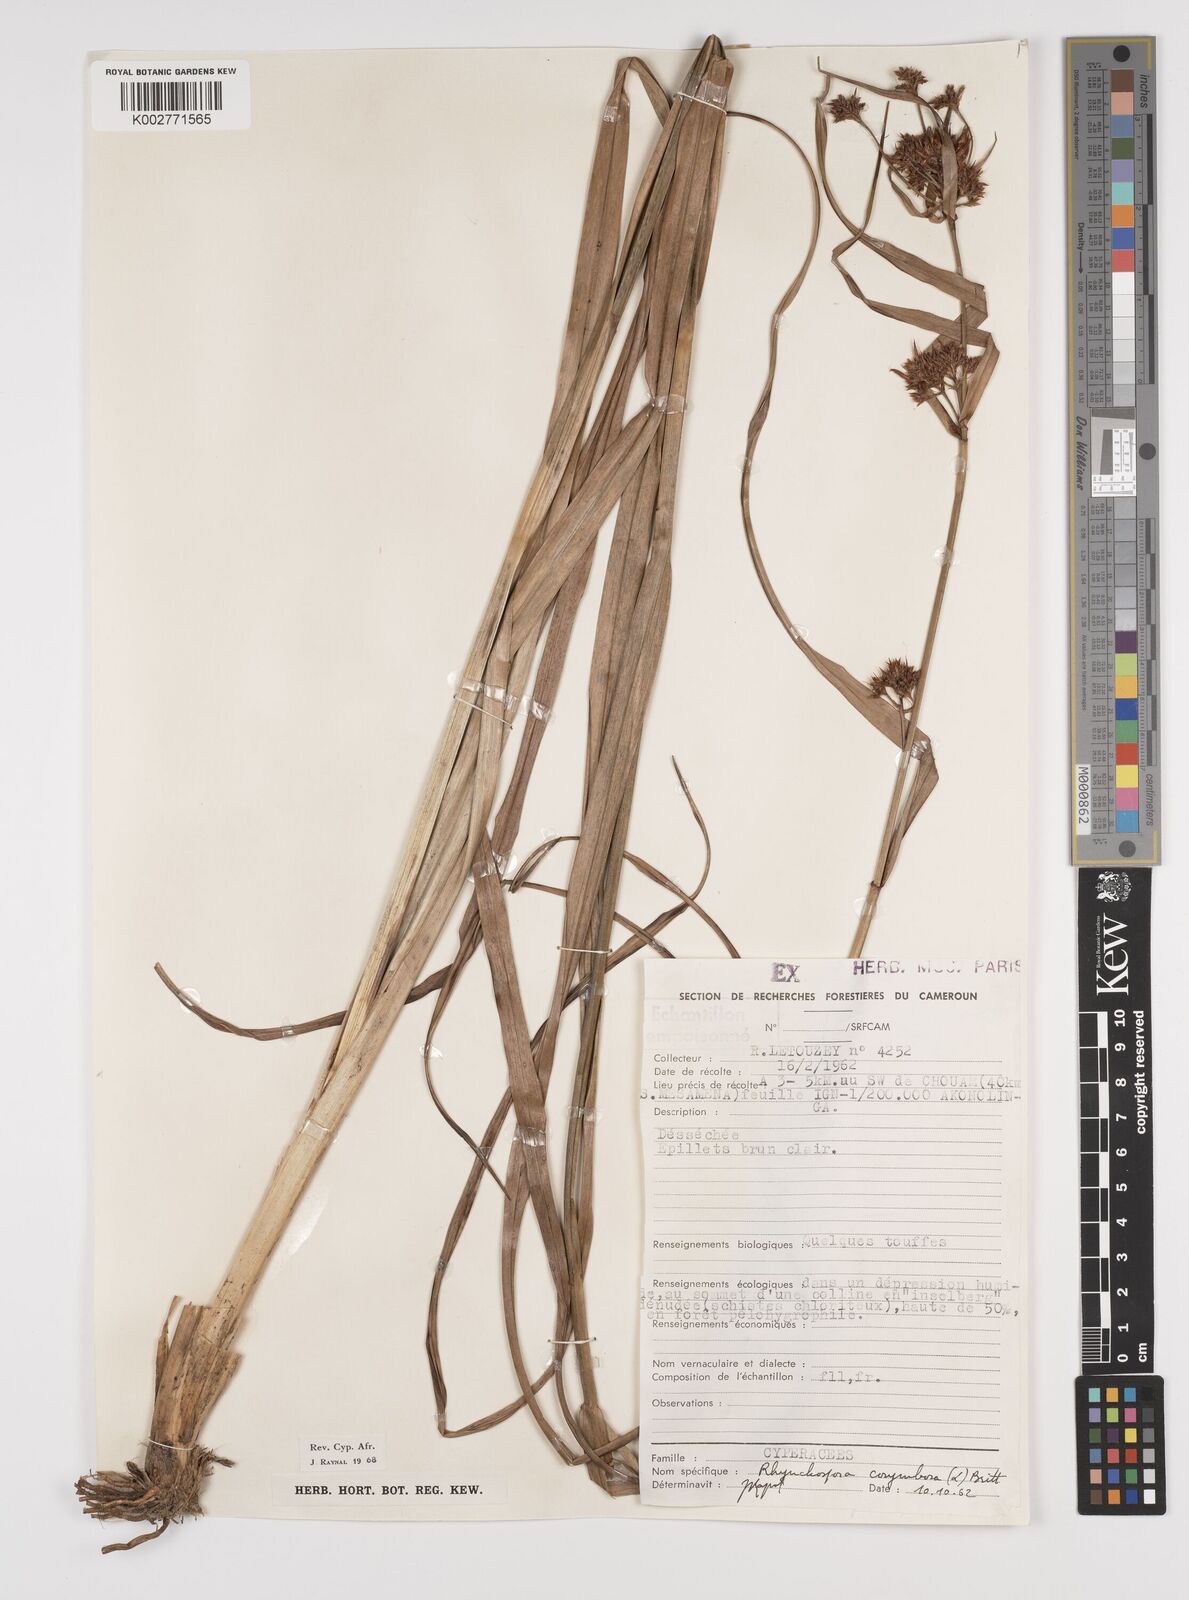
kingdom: Plantae
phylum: Tracheophyta
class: Liliopsida
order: Poales
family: Cyperaceae
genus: Rhynchospora
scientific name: Rhynchospora corymbosa
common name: Golden beak sedge
